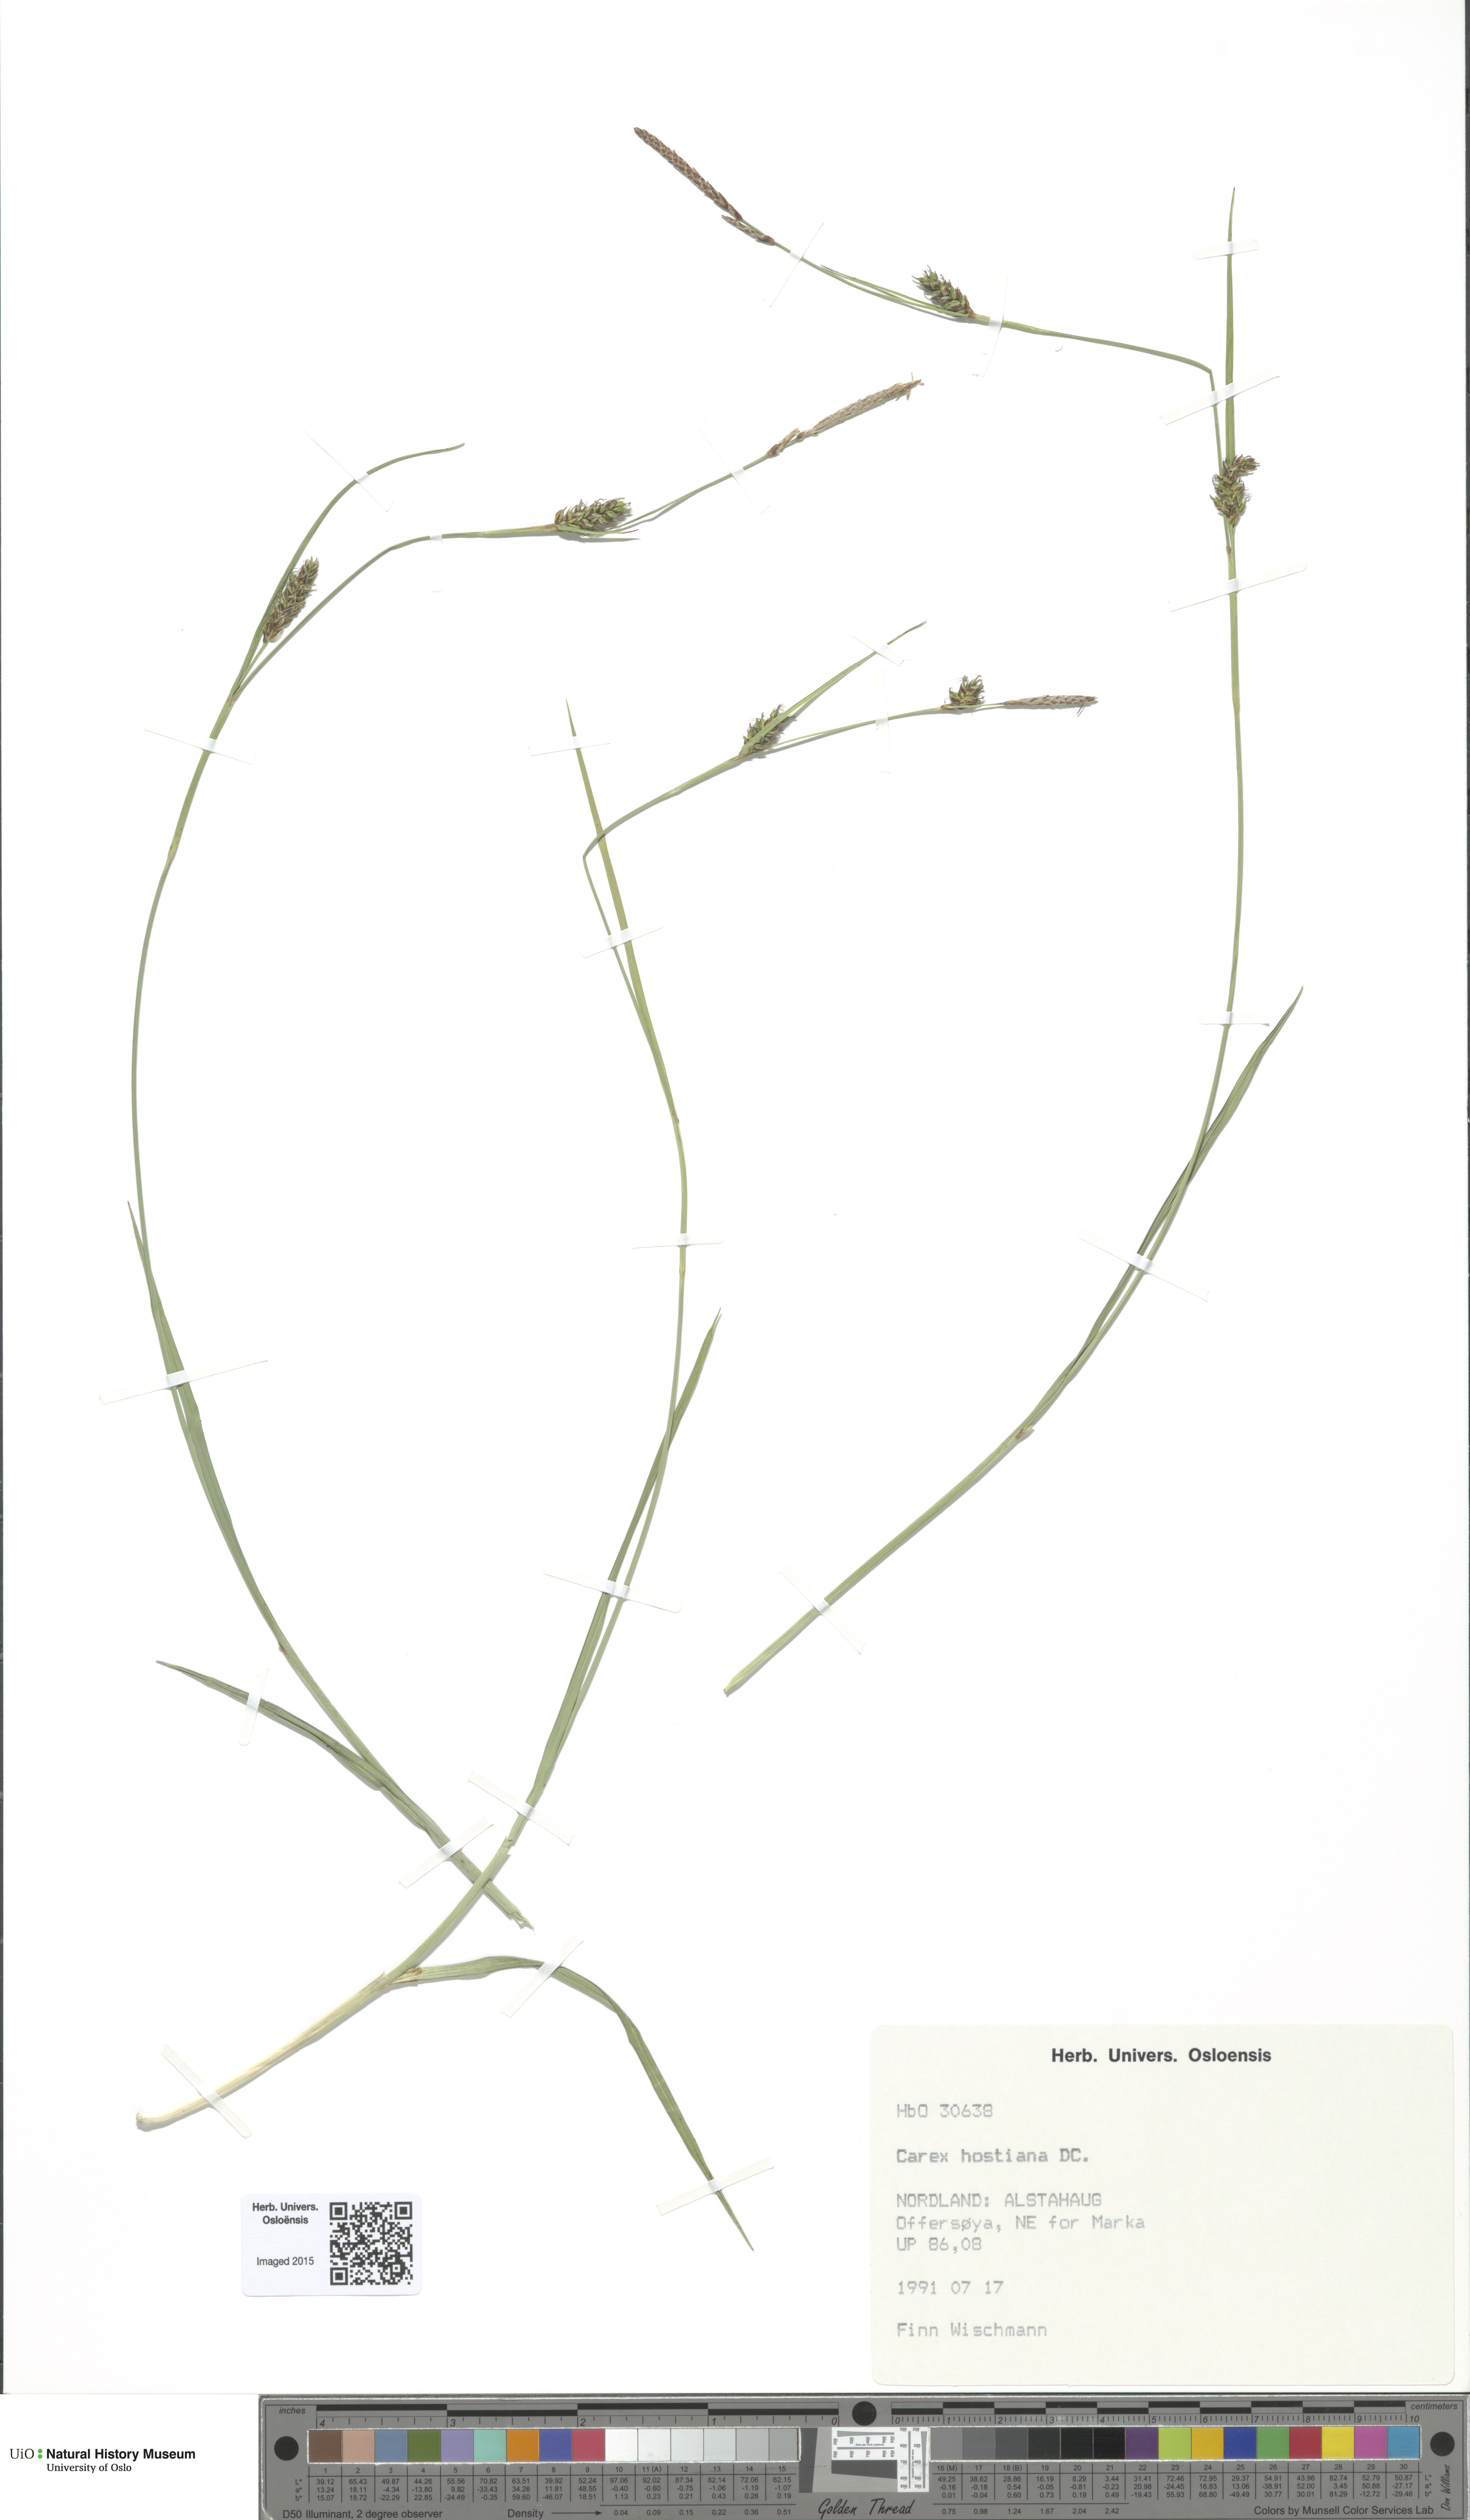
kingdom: Plantae
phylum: Tracheophyta
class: Liliopsida
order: Poales
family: Cyperaceae
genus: Carex
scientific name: Carex hostiana
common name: Tawny sedge
